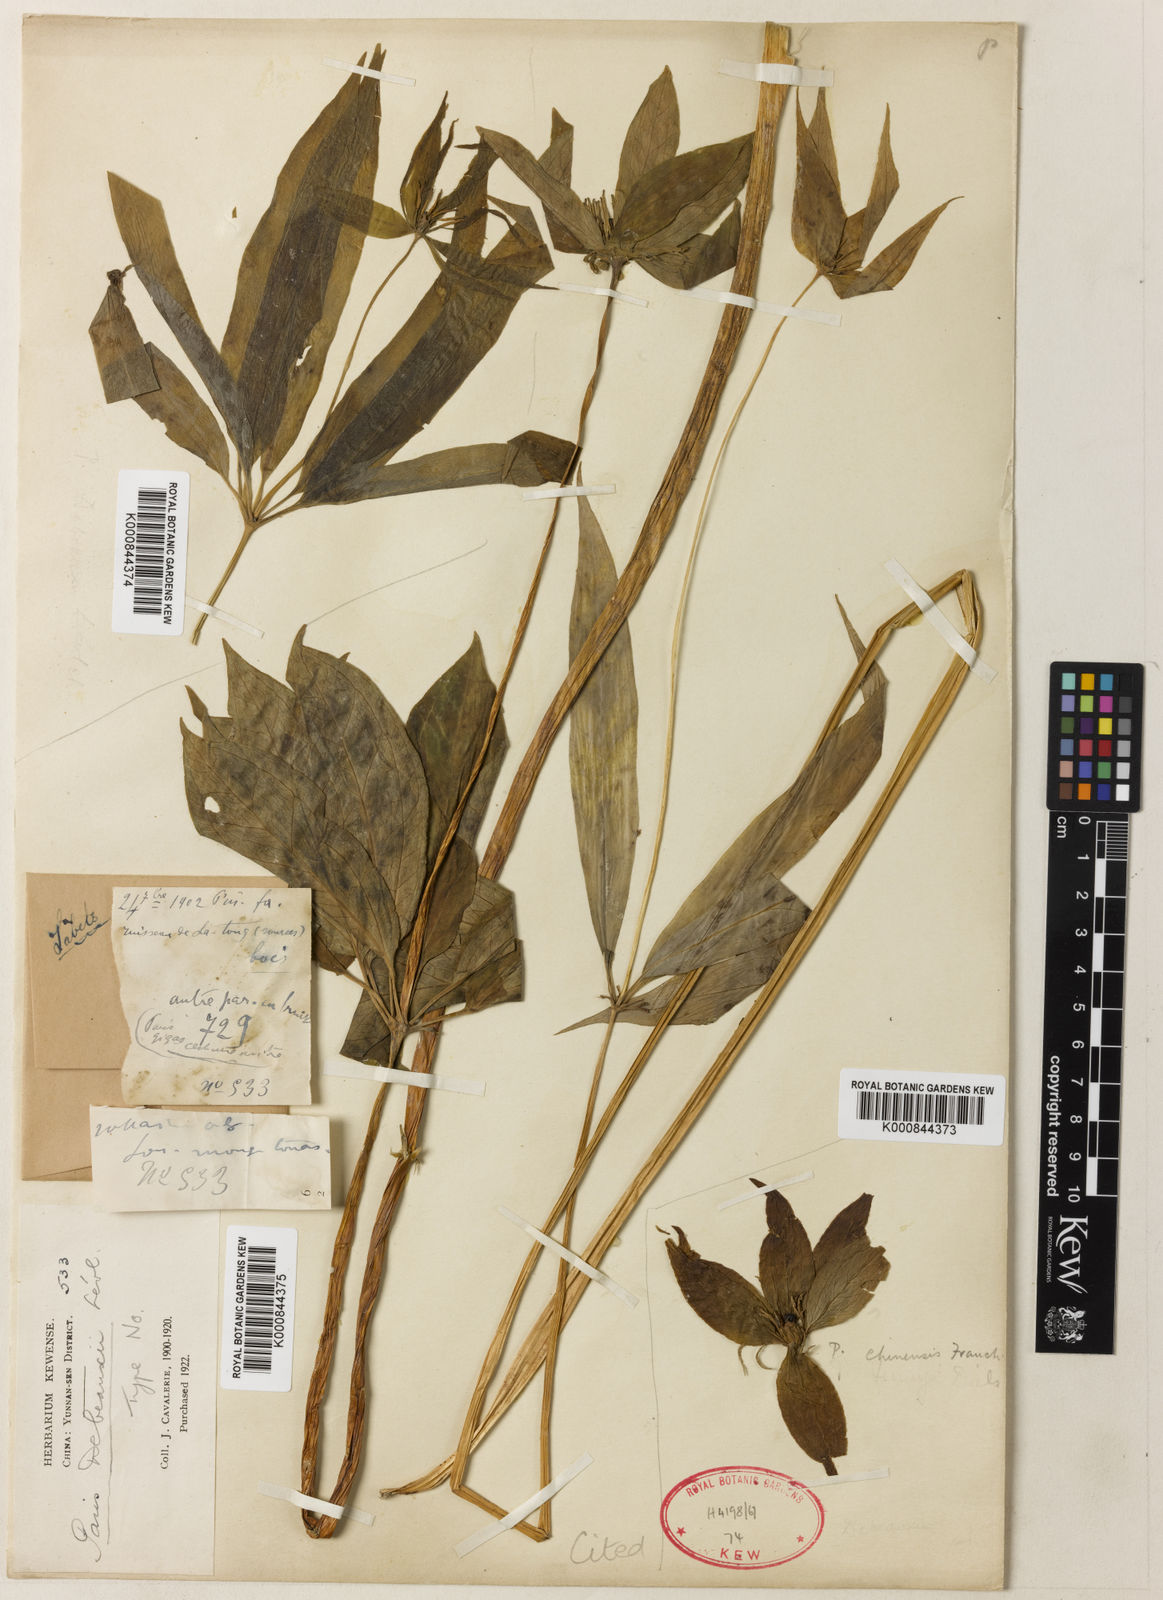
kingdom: Plantae
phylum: Tracheophyta
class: Liliopsida
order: Liliales
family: Melanthiaceae
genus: Paris
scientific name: Paris polyphylla
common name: Love apple
